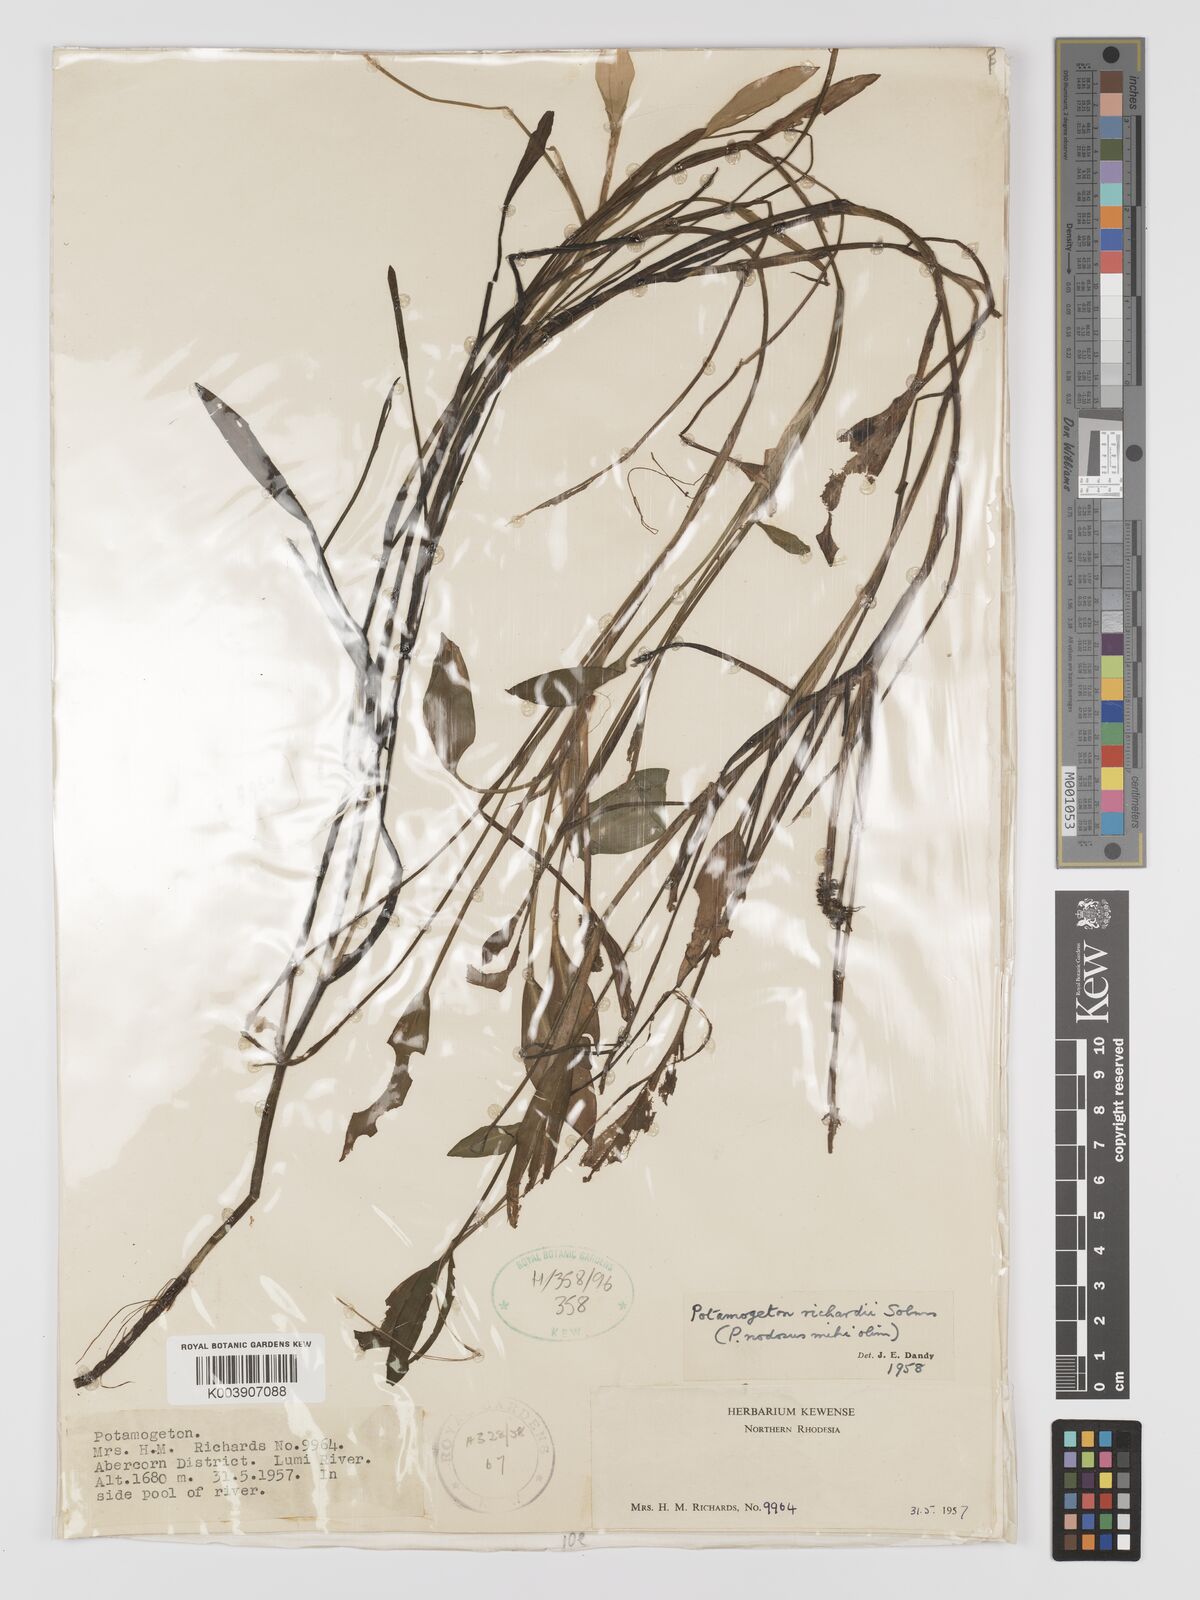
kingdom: Plantae
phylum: Tracheophyta
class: Liliopsida
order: Alismatales
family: Potamogetonaceae
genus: Potamogeton
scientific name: Potamogeton nodosus
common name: Loddon pondweed
